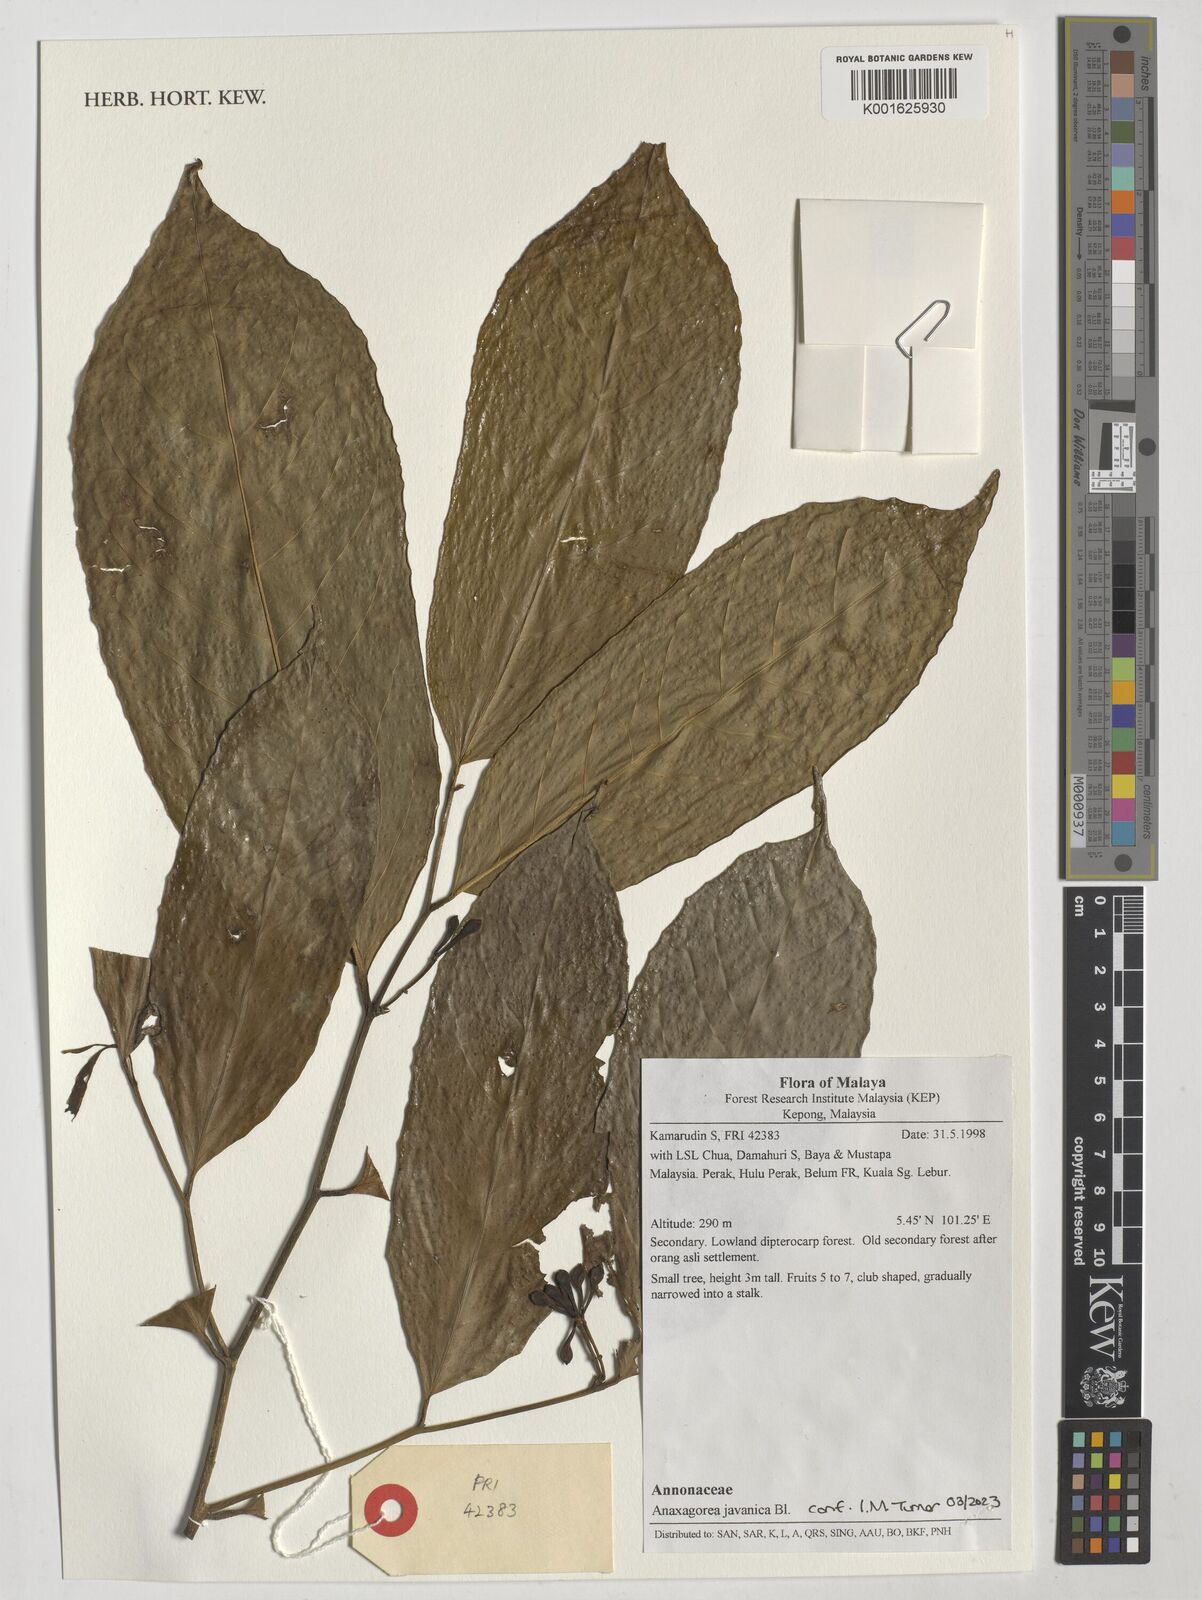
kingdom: Plantae
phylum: Tracheophyta
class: Magnoliopsida
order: Magnoliales
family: Annonaceae
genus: Anaxagorea
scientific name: Anaxagorea javanica
